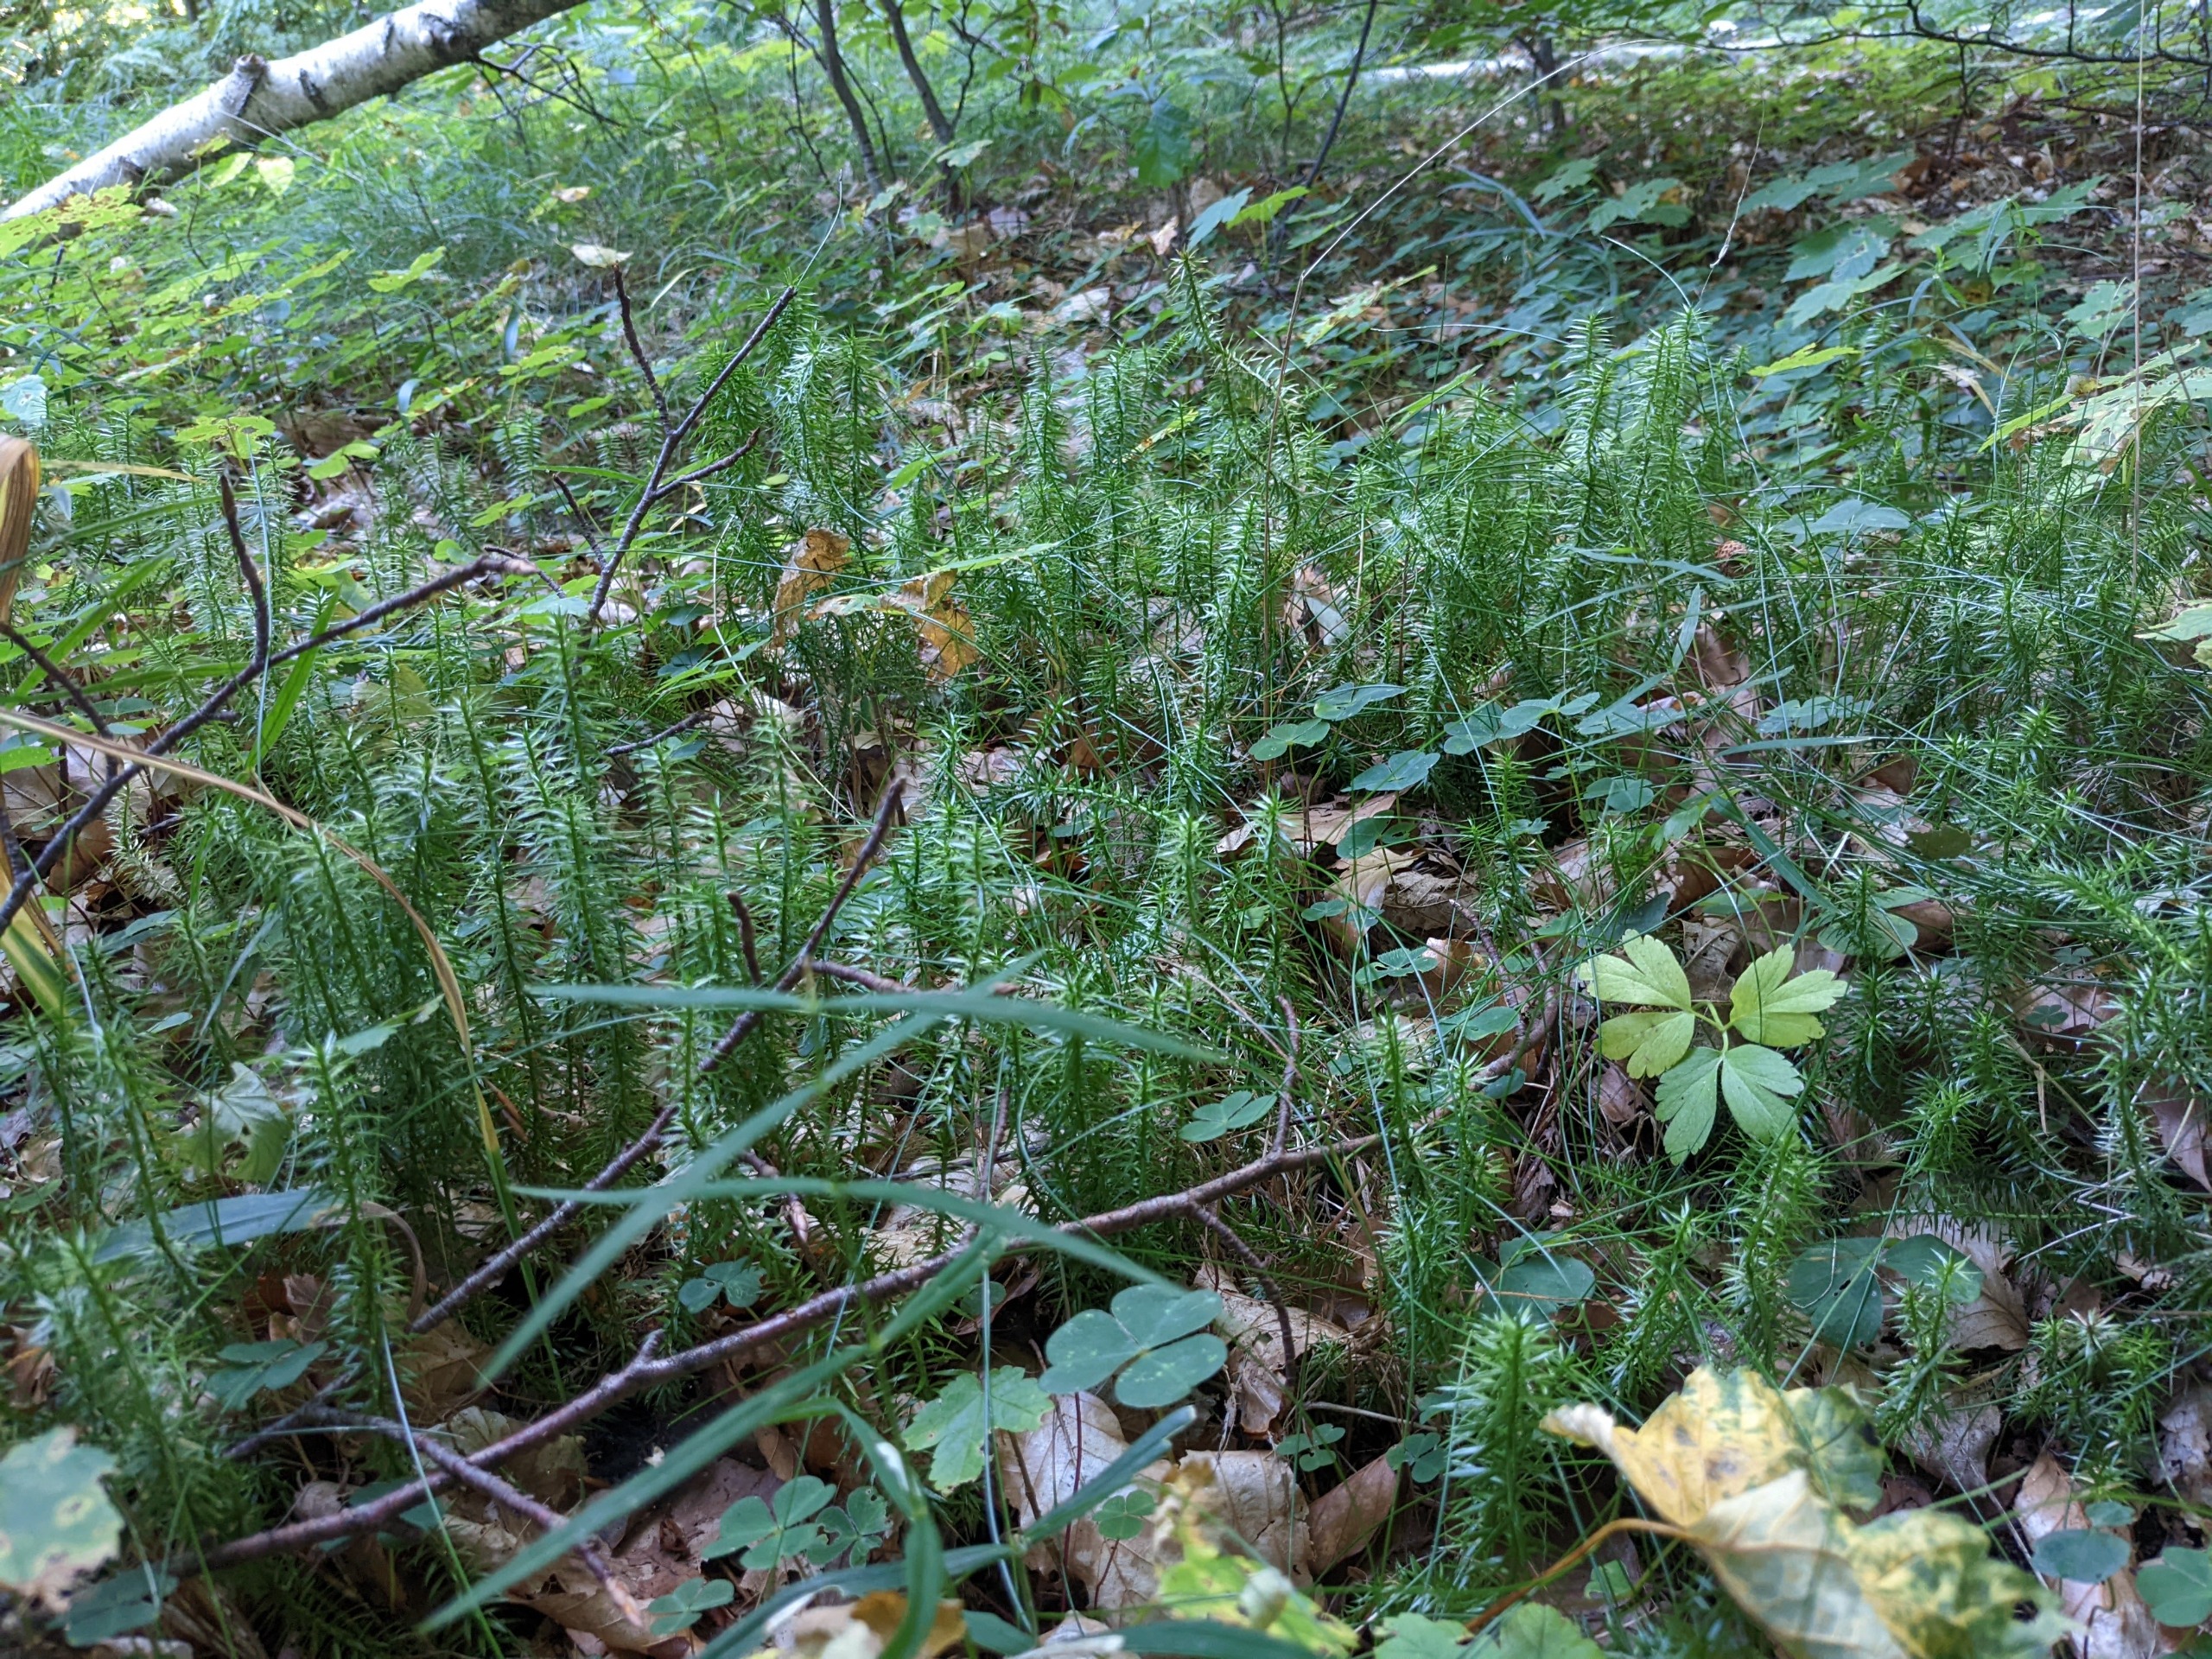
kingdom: Plantae
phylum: Tracheophyta
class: Lycopodiopsida
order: Lycopodiales
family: Lycopodiaceae
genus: Spinulum
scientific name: Spinulum annotinum
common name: Femradet ulvefod
